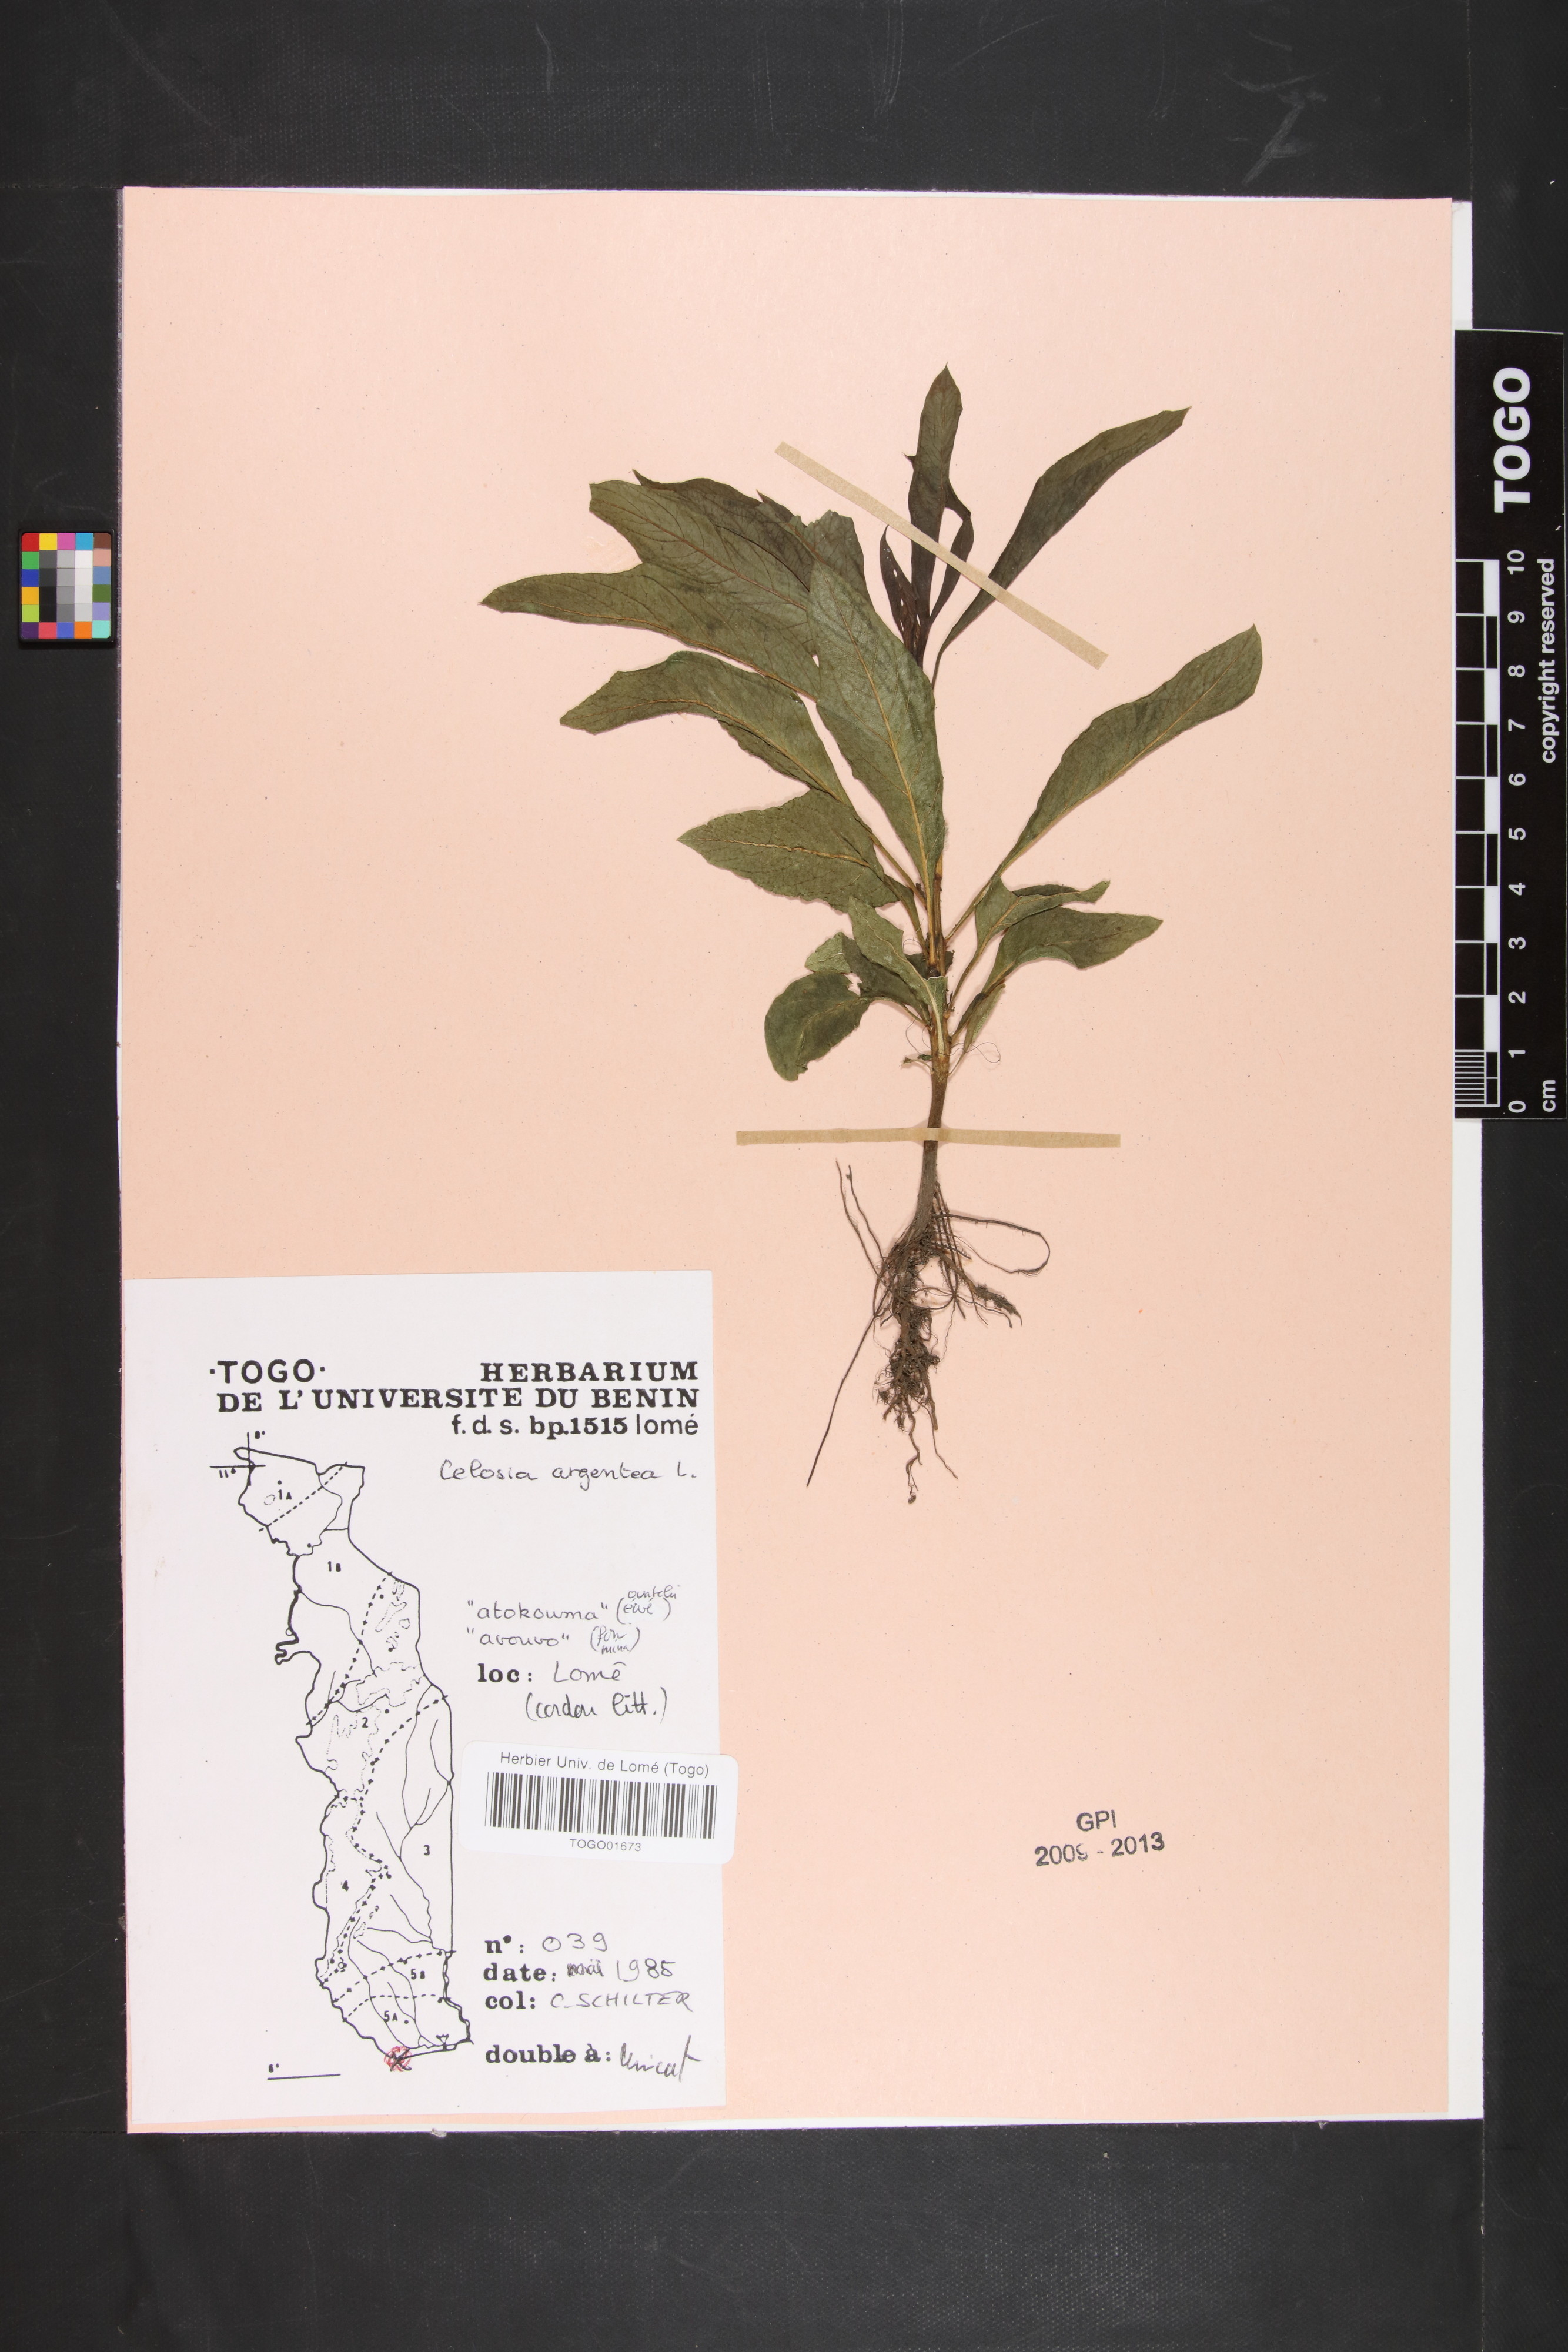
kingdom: Plantae
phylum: Tracheophyta
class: Magnoliopsida
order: Caryophyllales
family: Amaranthaceae
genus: Celosia
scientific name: Celosia argentea
